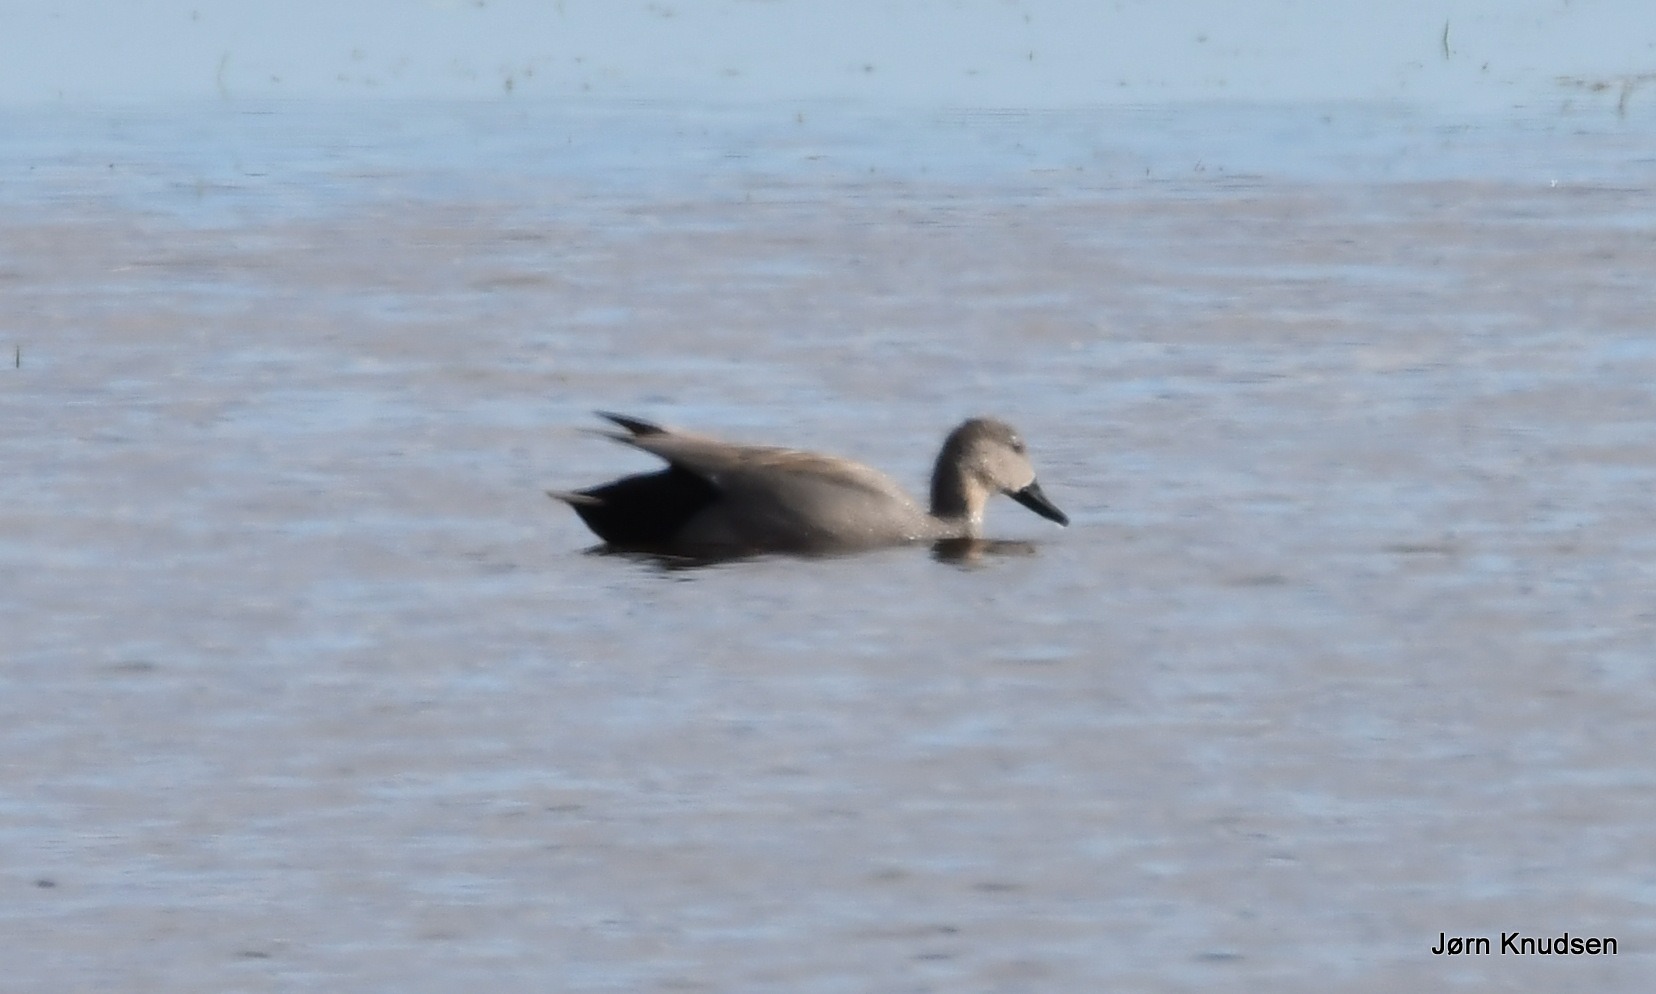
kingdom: Animalia
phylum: Chordata
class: Aves
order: Anseriformes
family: Anatidae
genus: Mareca
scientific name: Mareca strepera
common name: Knarand
